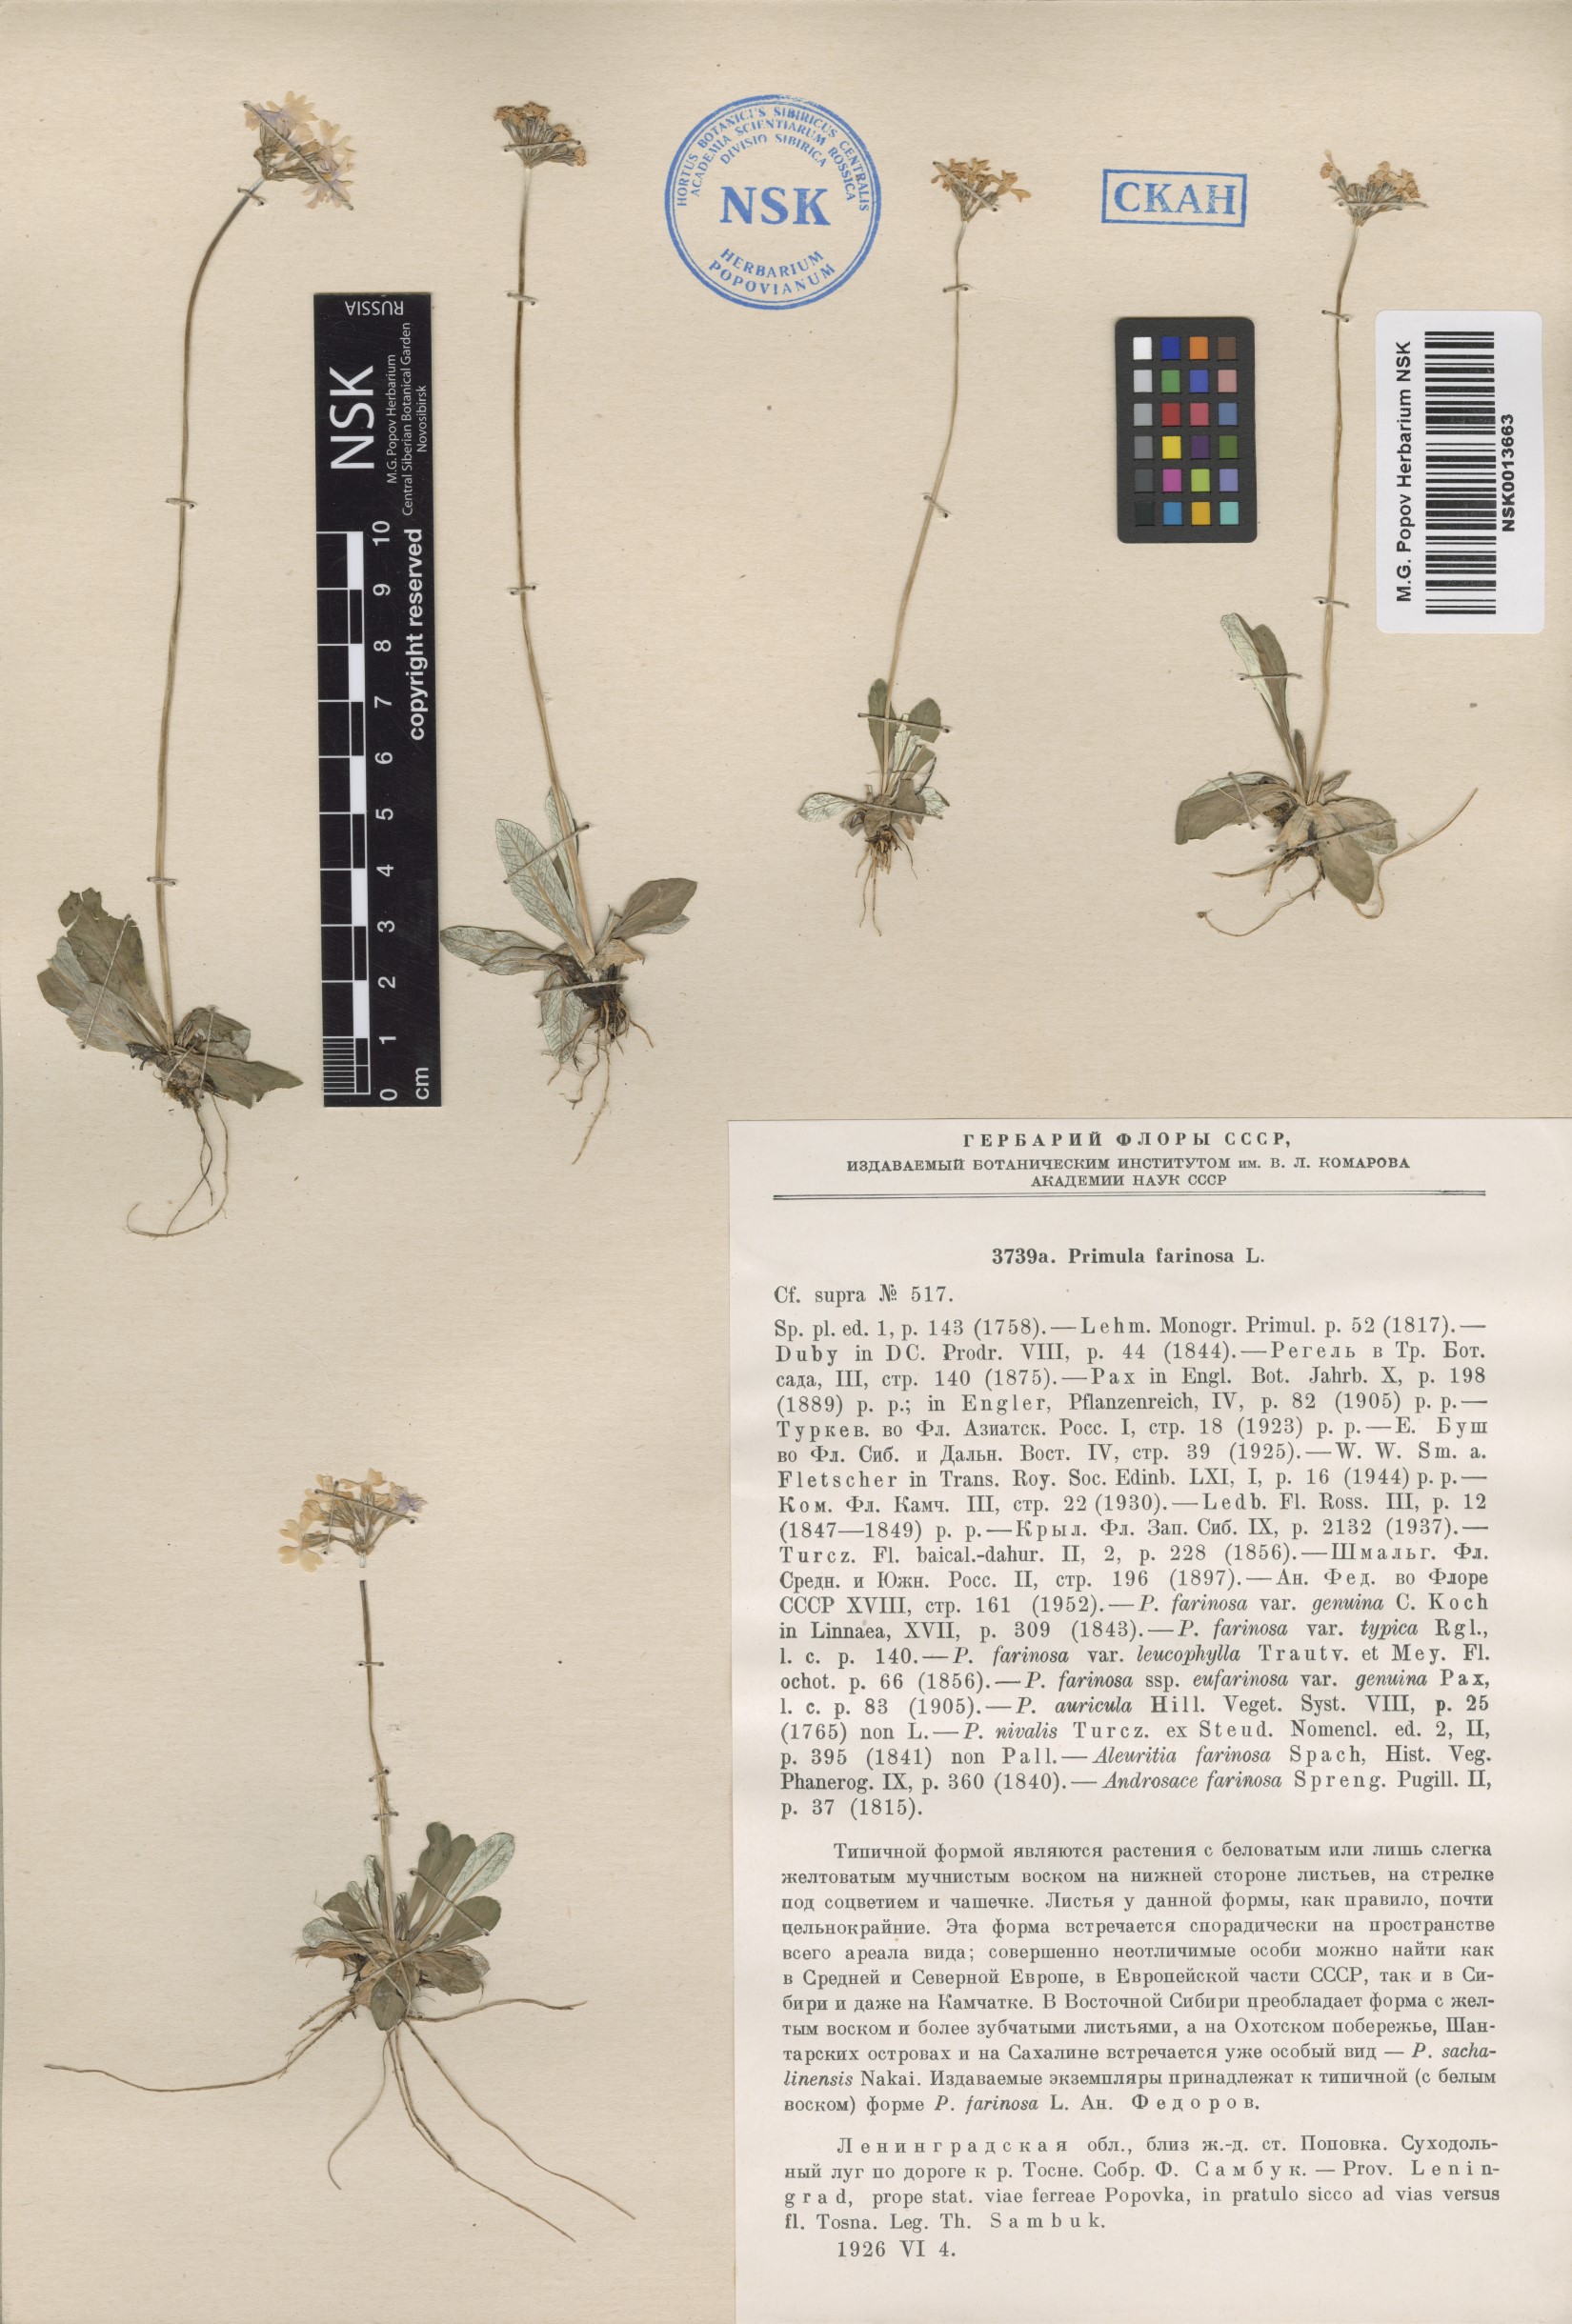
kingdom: Plantae
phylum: Tracheophyta
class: Magnoliopsida
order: Ericales
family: Primulaceae
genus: Primula
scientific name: Primula farinosa
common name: Bird's-eye primrose
